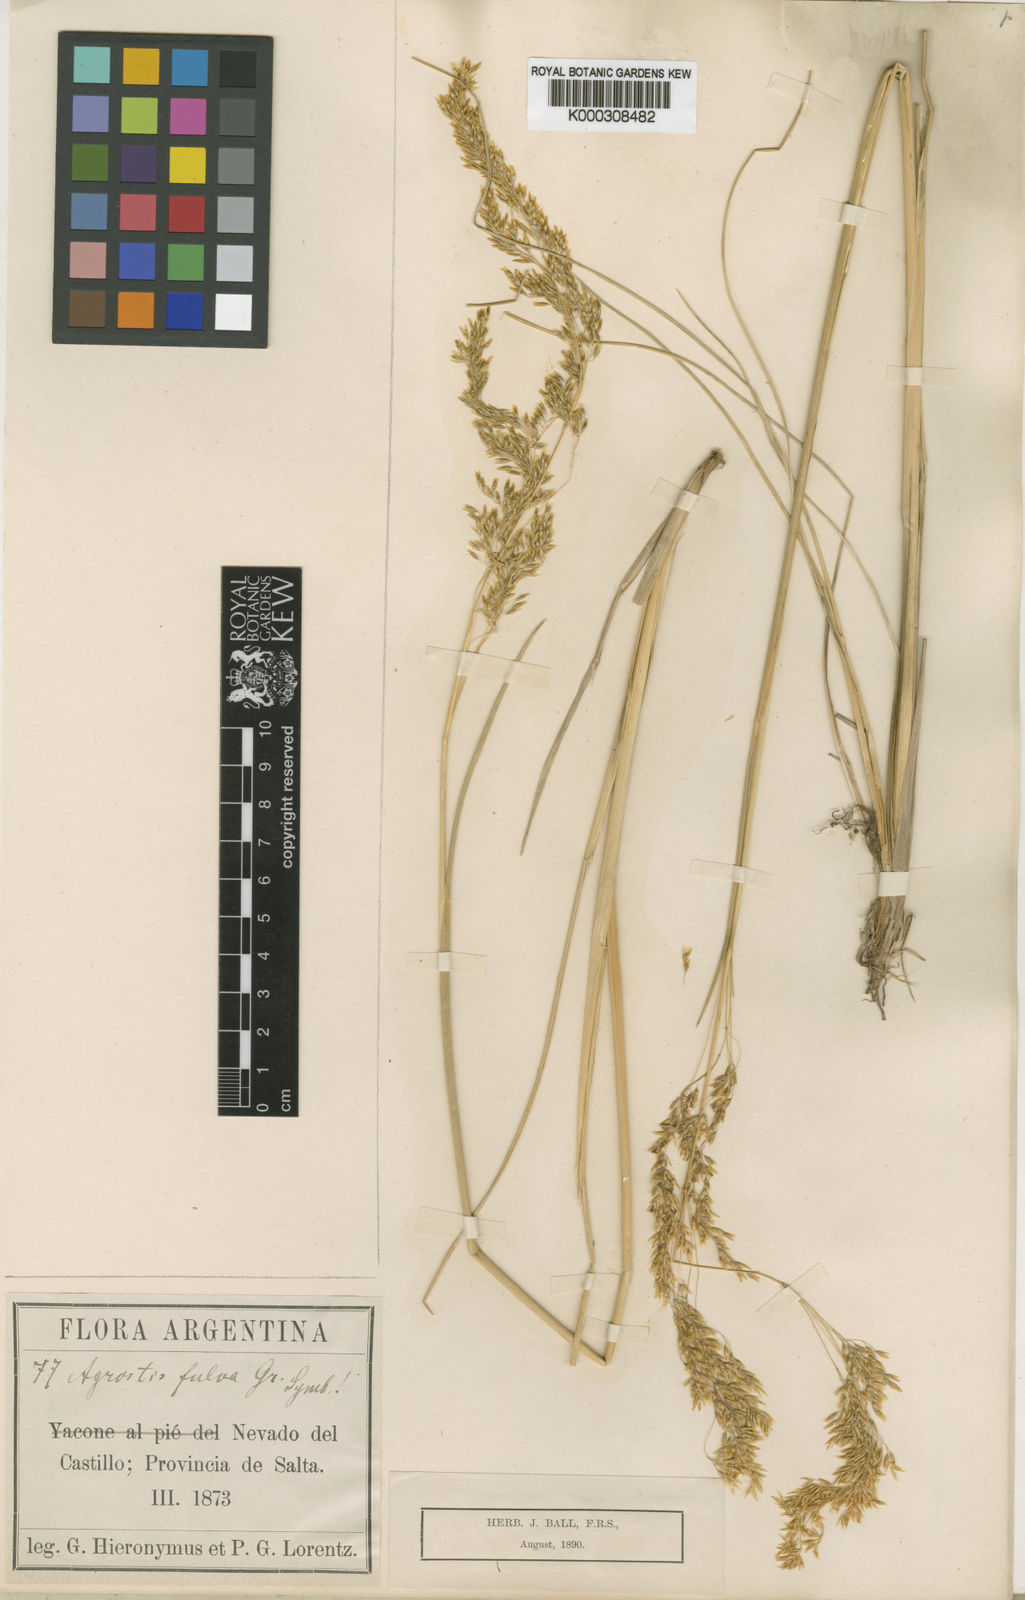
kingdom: Plantae
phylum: Tracheophyta
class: Liliopsida
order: Poales
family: Poaceae
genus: Deschampsia
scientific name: Deschampsia eminens
